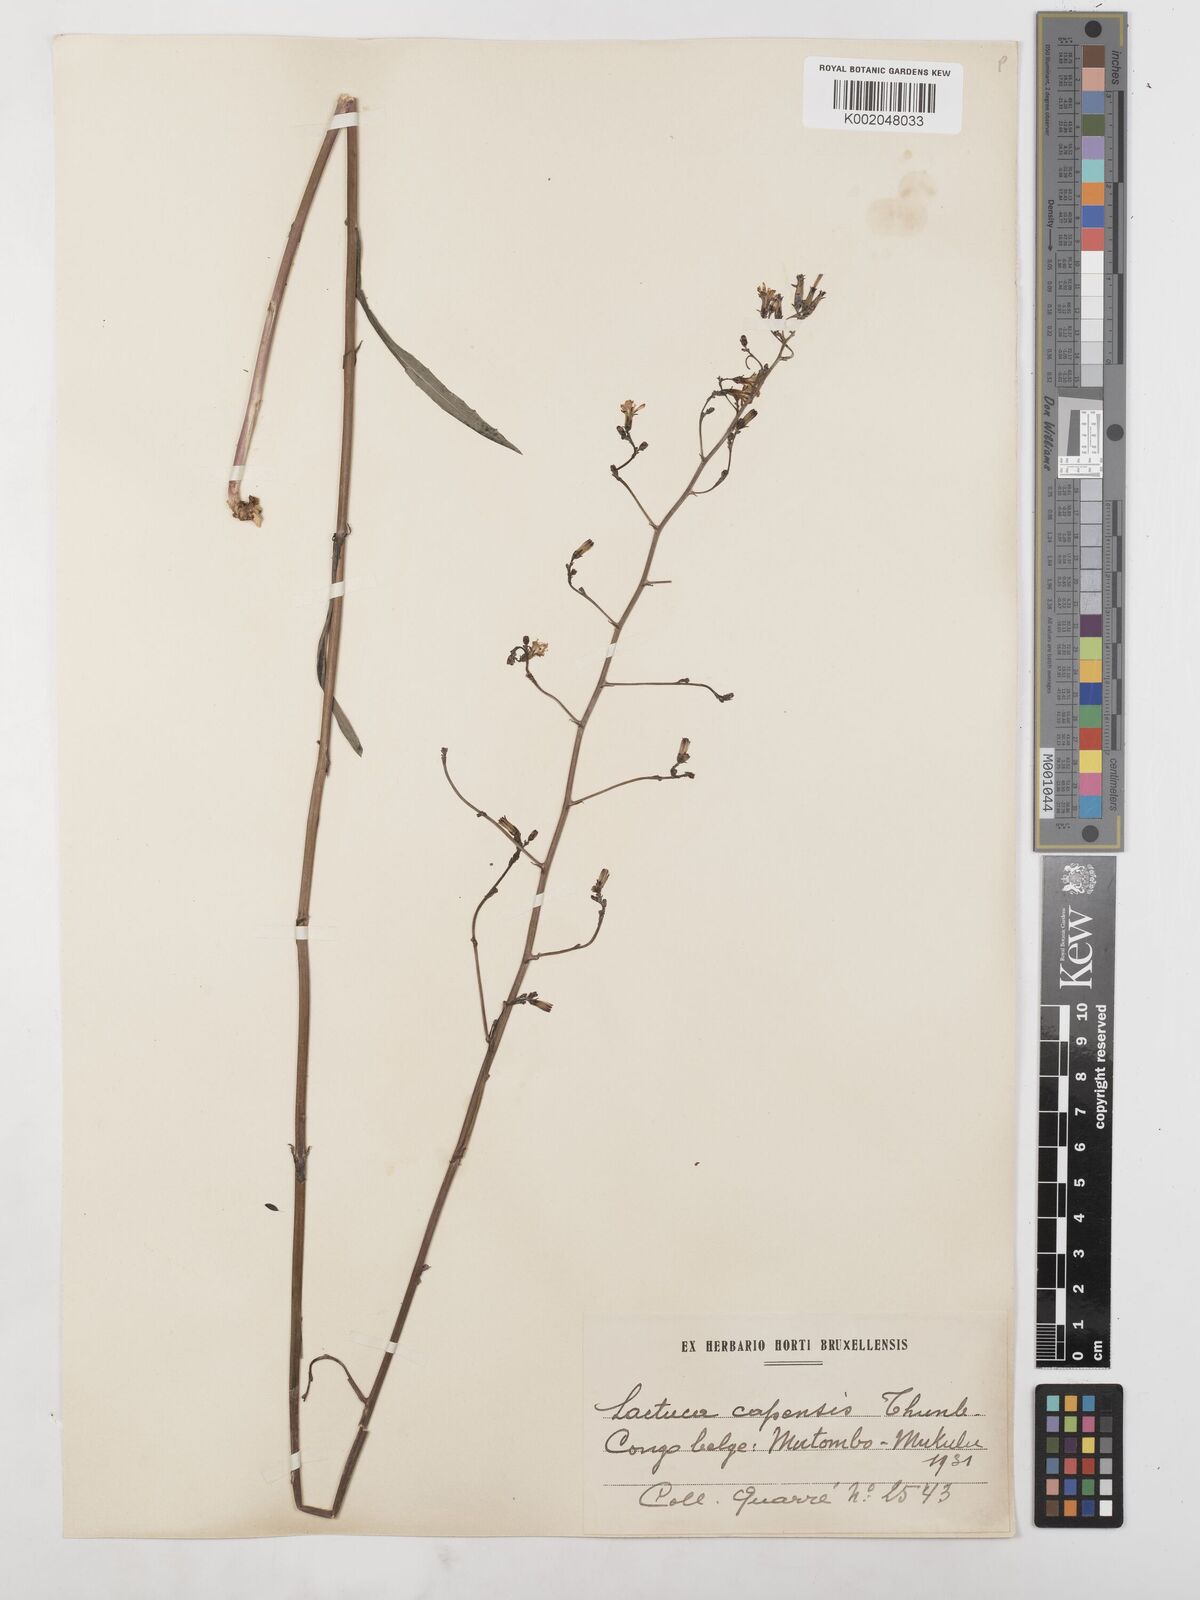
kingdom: Plantae
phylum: Tracheophyta
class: Magnoliopsida
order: Asterales
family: Asteraceae
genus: Lactuca
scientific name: Lactuca inermis
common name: Wild lettuce
